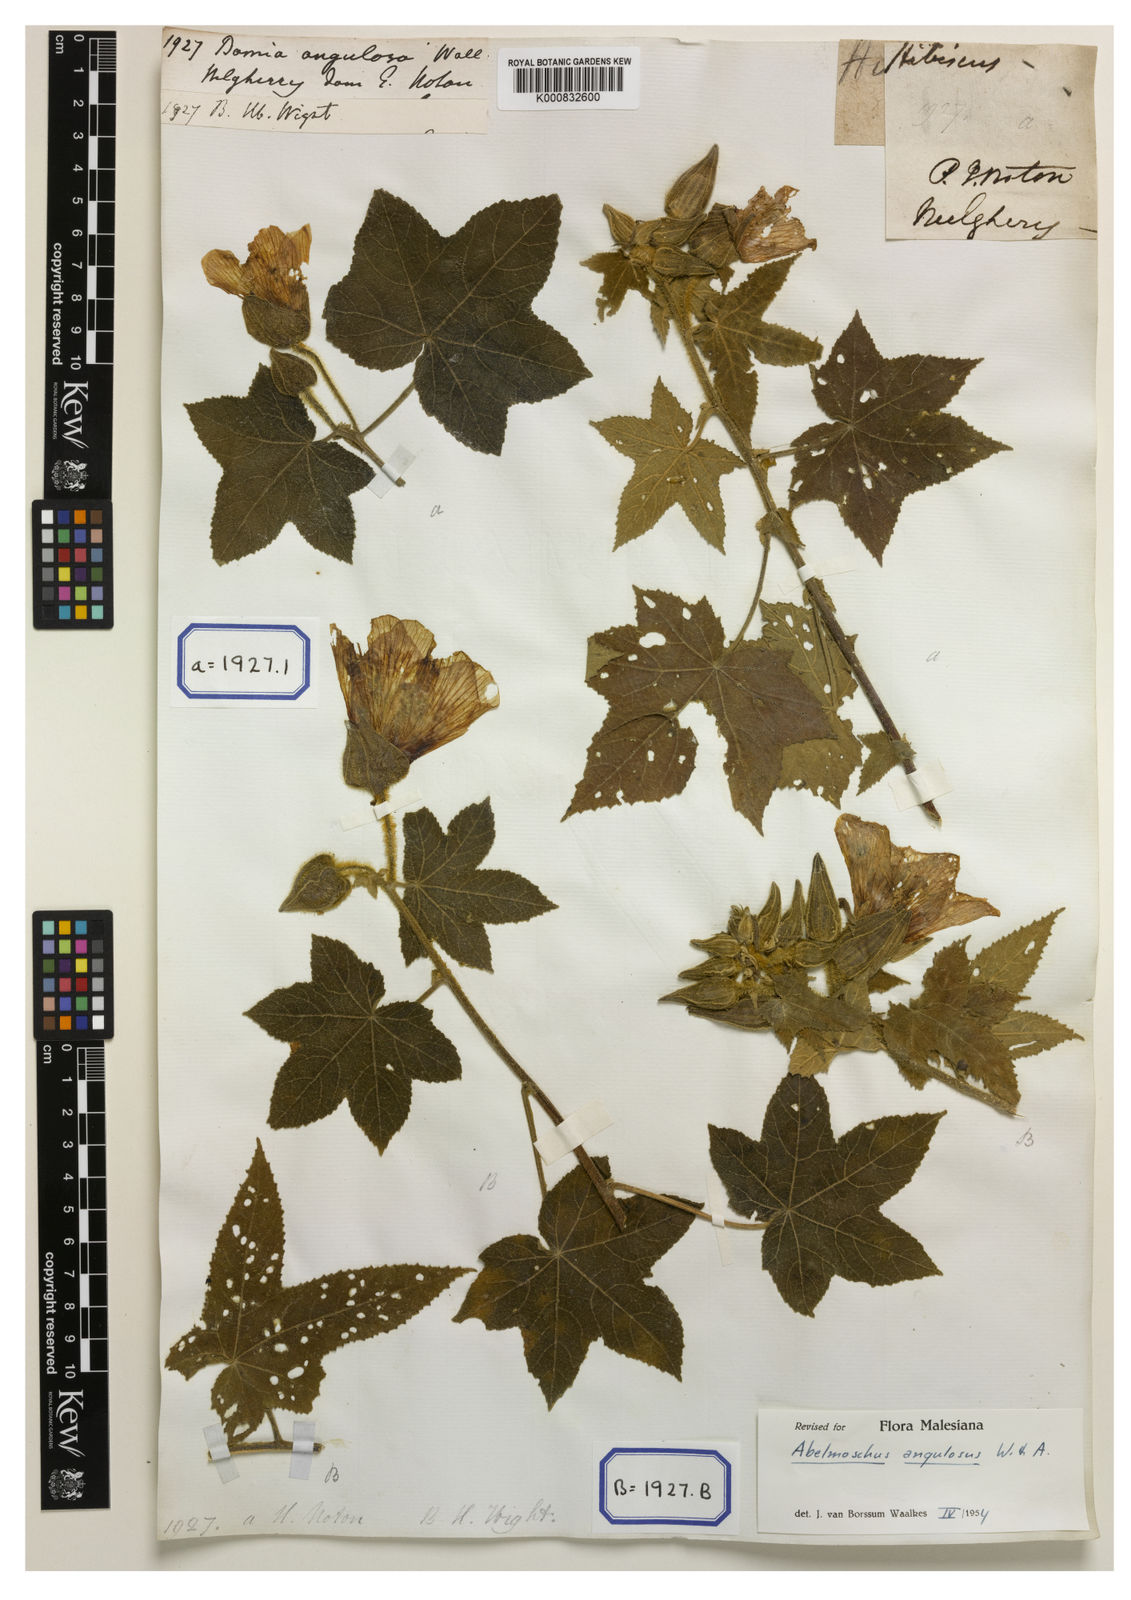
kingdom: Plantae
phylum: Tracheophyta
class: Magnoliopsida
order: Malvales
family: Malvaceae
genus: Abelmoschus
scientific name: Abelmoschus angulosus
